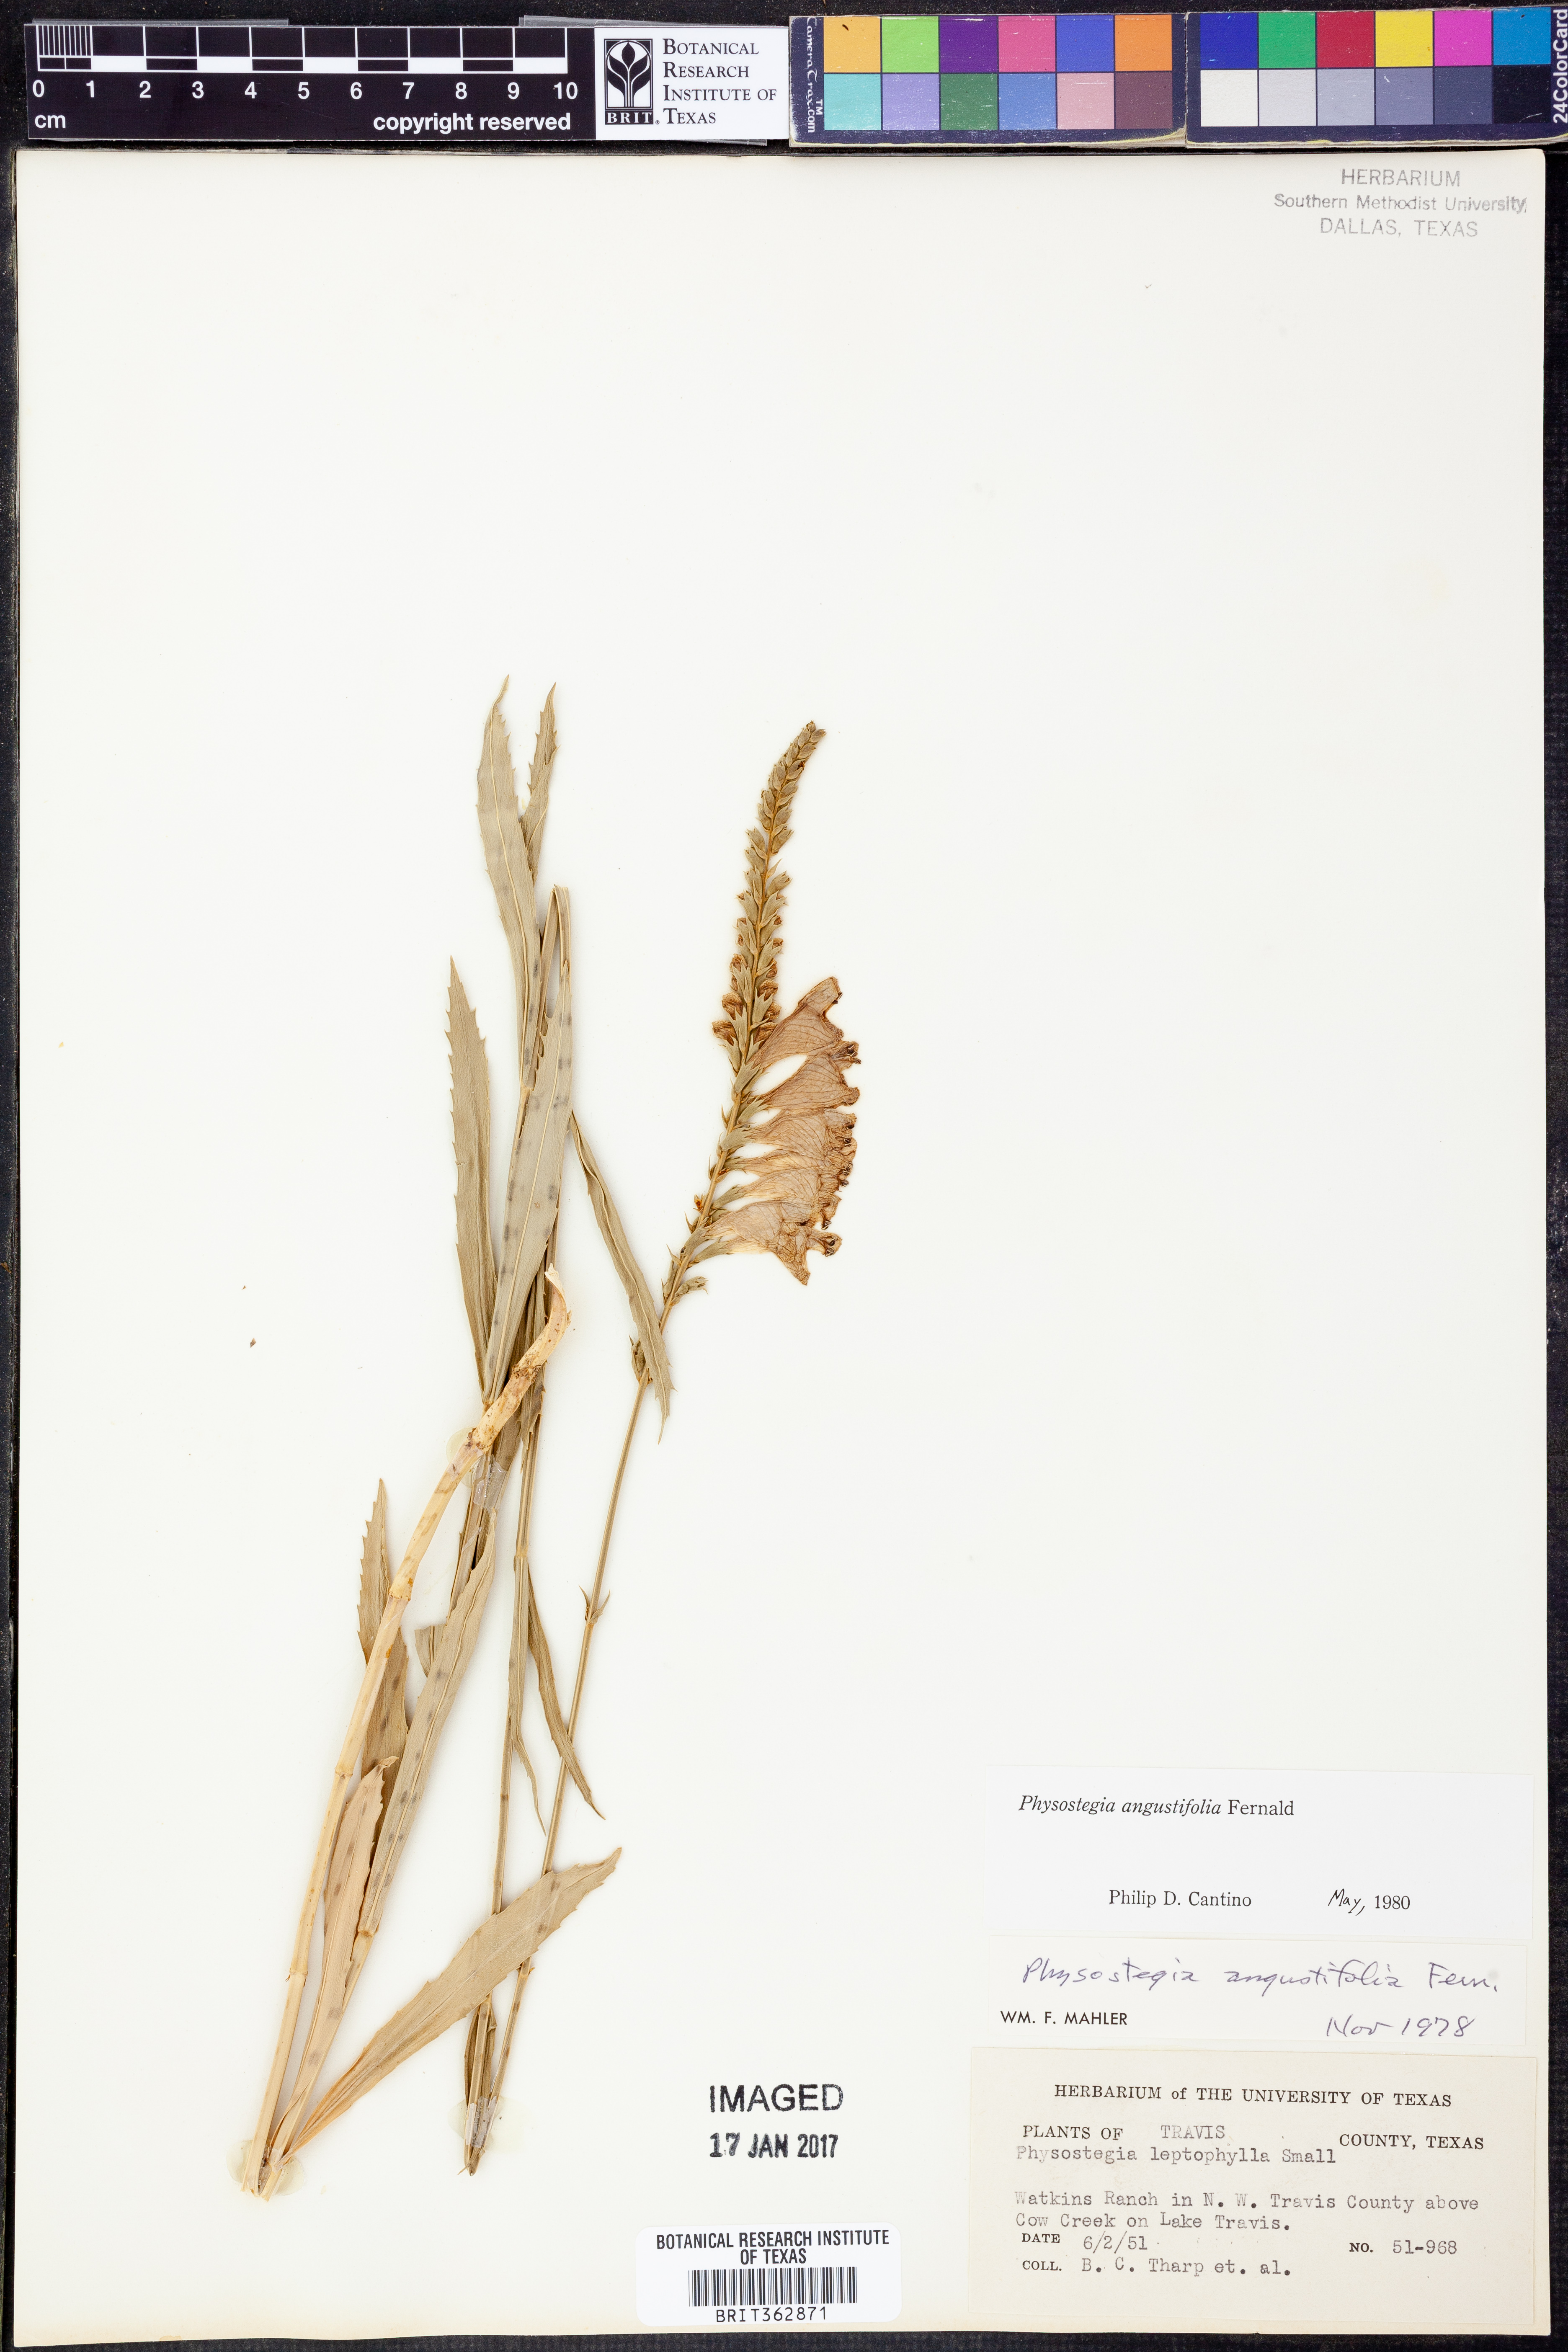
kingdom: Plantae
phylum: Tracheophyta
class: Magnoliopsida
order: Lamiales
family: Lamiaceae
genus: Physostegia
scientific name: Physostegia angustifolia
